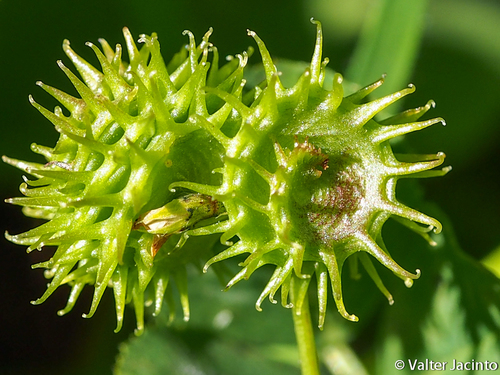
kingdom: Plantae
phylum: Tracheophyta
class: Magnoliopsida
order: Fabales
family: Fabaceae
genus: Medicago
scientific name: Medicago polymorpha
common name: Burclover
